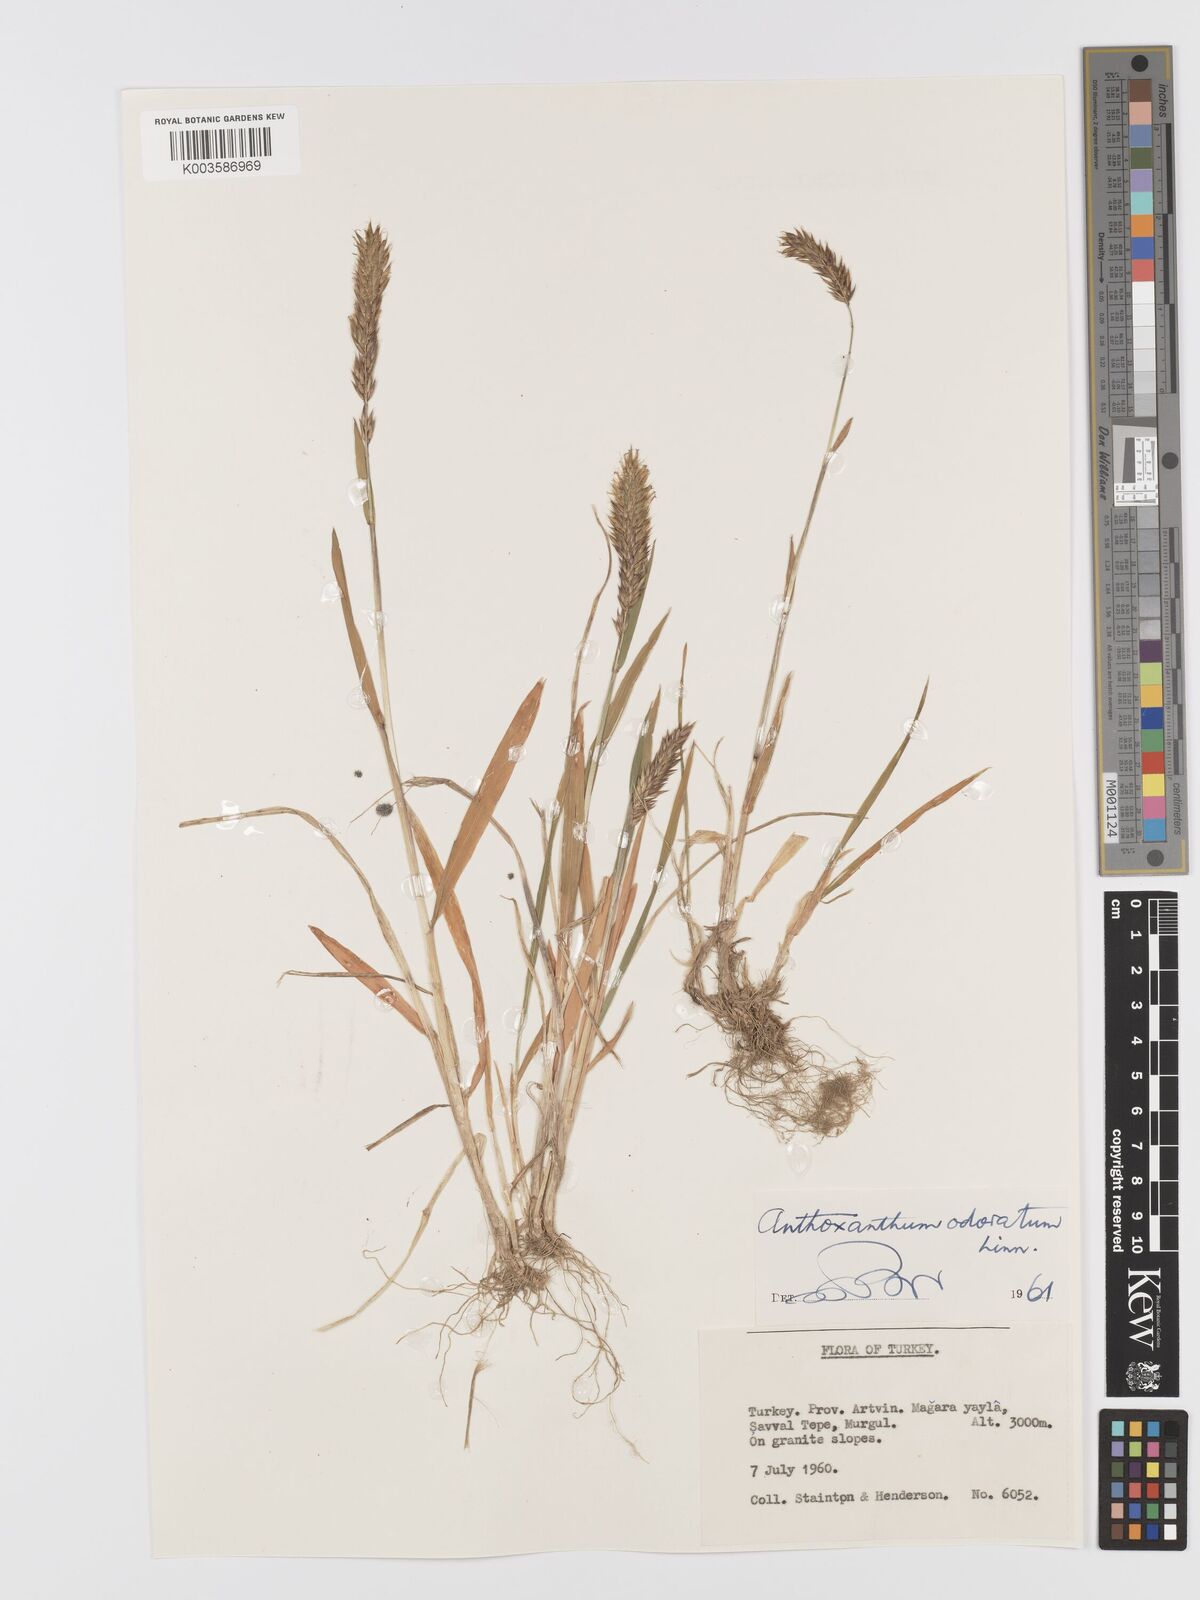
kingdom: Plantae
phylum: Tracheophyta
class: Liliopsida
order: Poales
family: Poaceae
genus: Anthoxanthum
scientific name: Anthoxanthum odoratum
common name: Sweet vernalgrass
